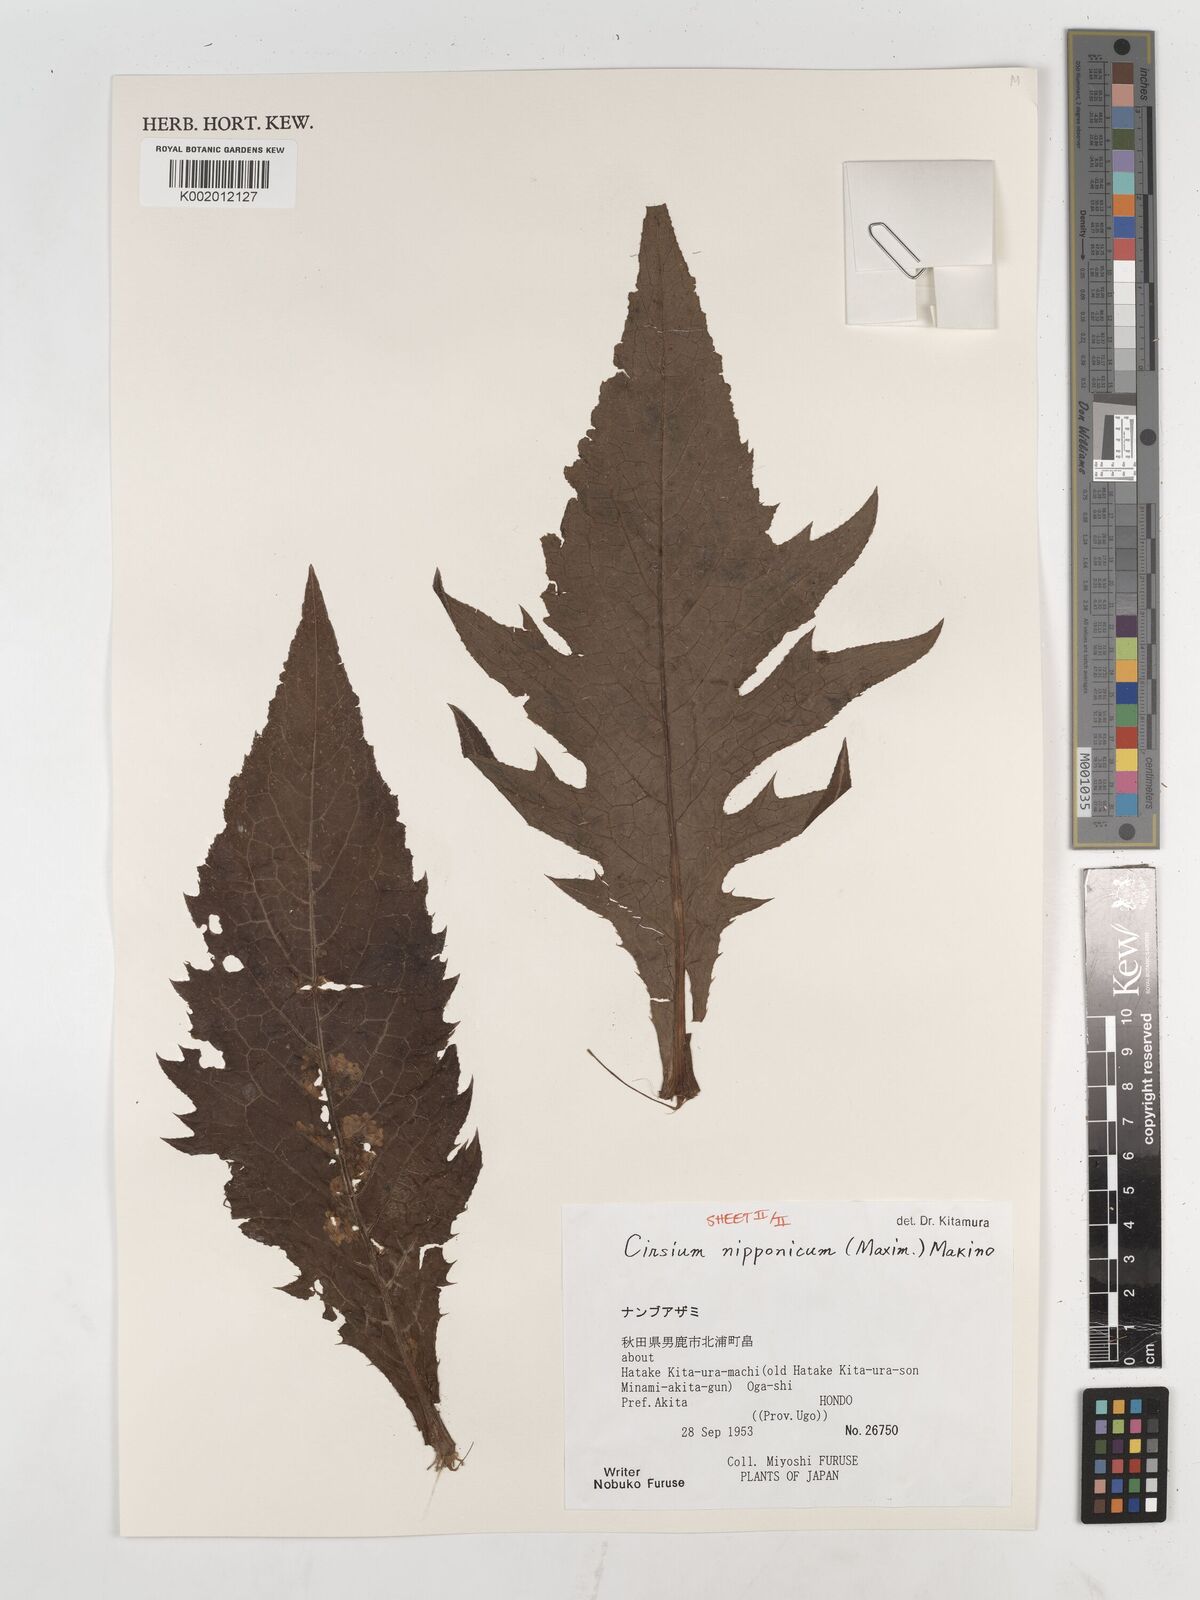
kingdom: Plantae
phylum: Tracheophyta
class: Magnoliopsida
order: Asterales
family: Asteraceae
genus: Cirsium
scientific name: Cirsium nipponicum
